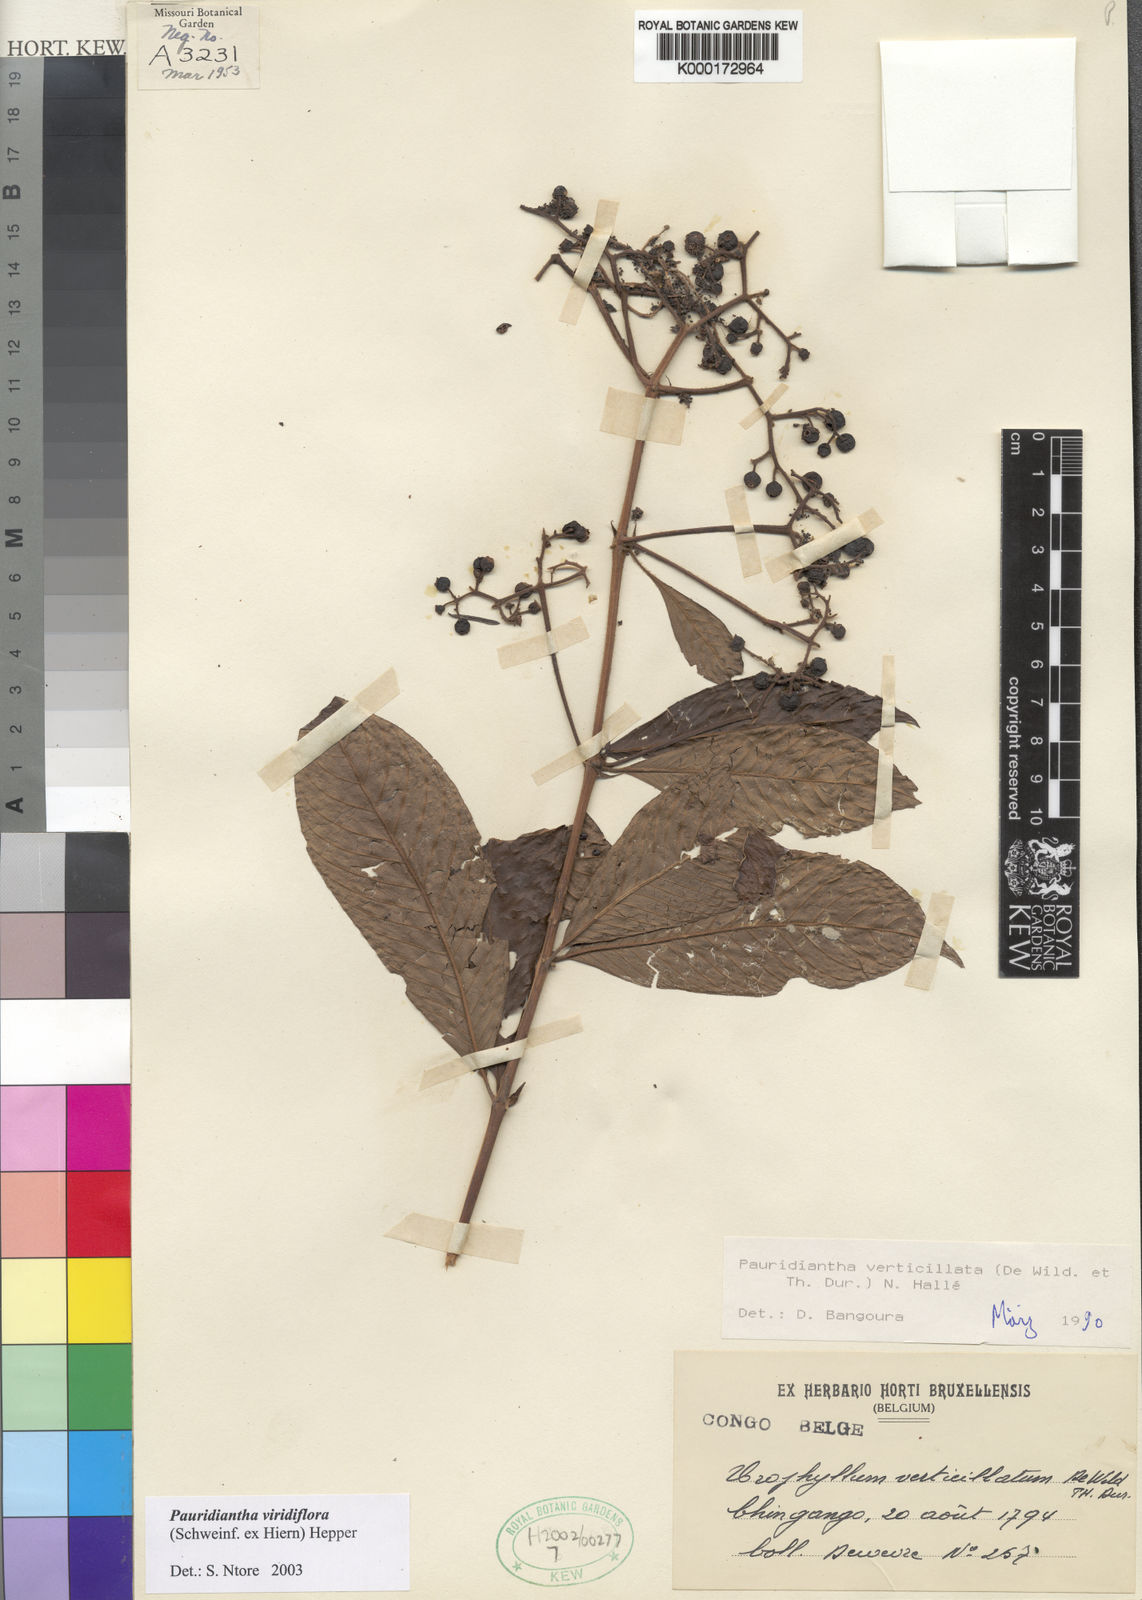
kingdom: Plantae
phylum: Tracheophyta
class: Magnoliopsida
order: Gentianales
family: Rubiaceae
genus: Pauridiantha
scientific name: Pauridiantha
